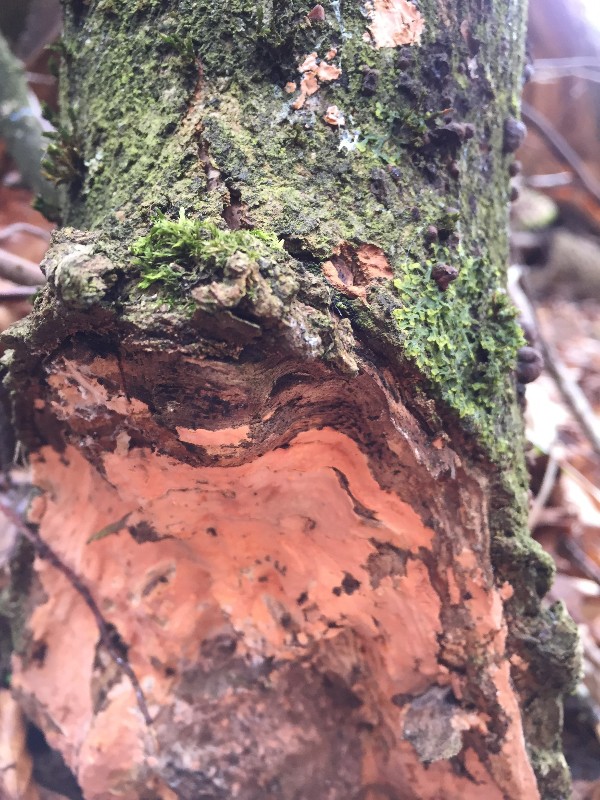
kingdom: Fungi
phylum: Basidiomycota
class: Agaricomycetes
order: Russulales
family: Peniophoraceae
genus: Peniophora
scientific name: Peniophora incarnata
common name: laksefarvet voksskind
